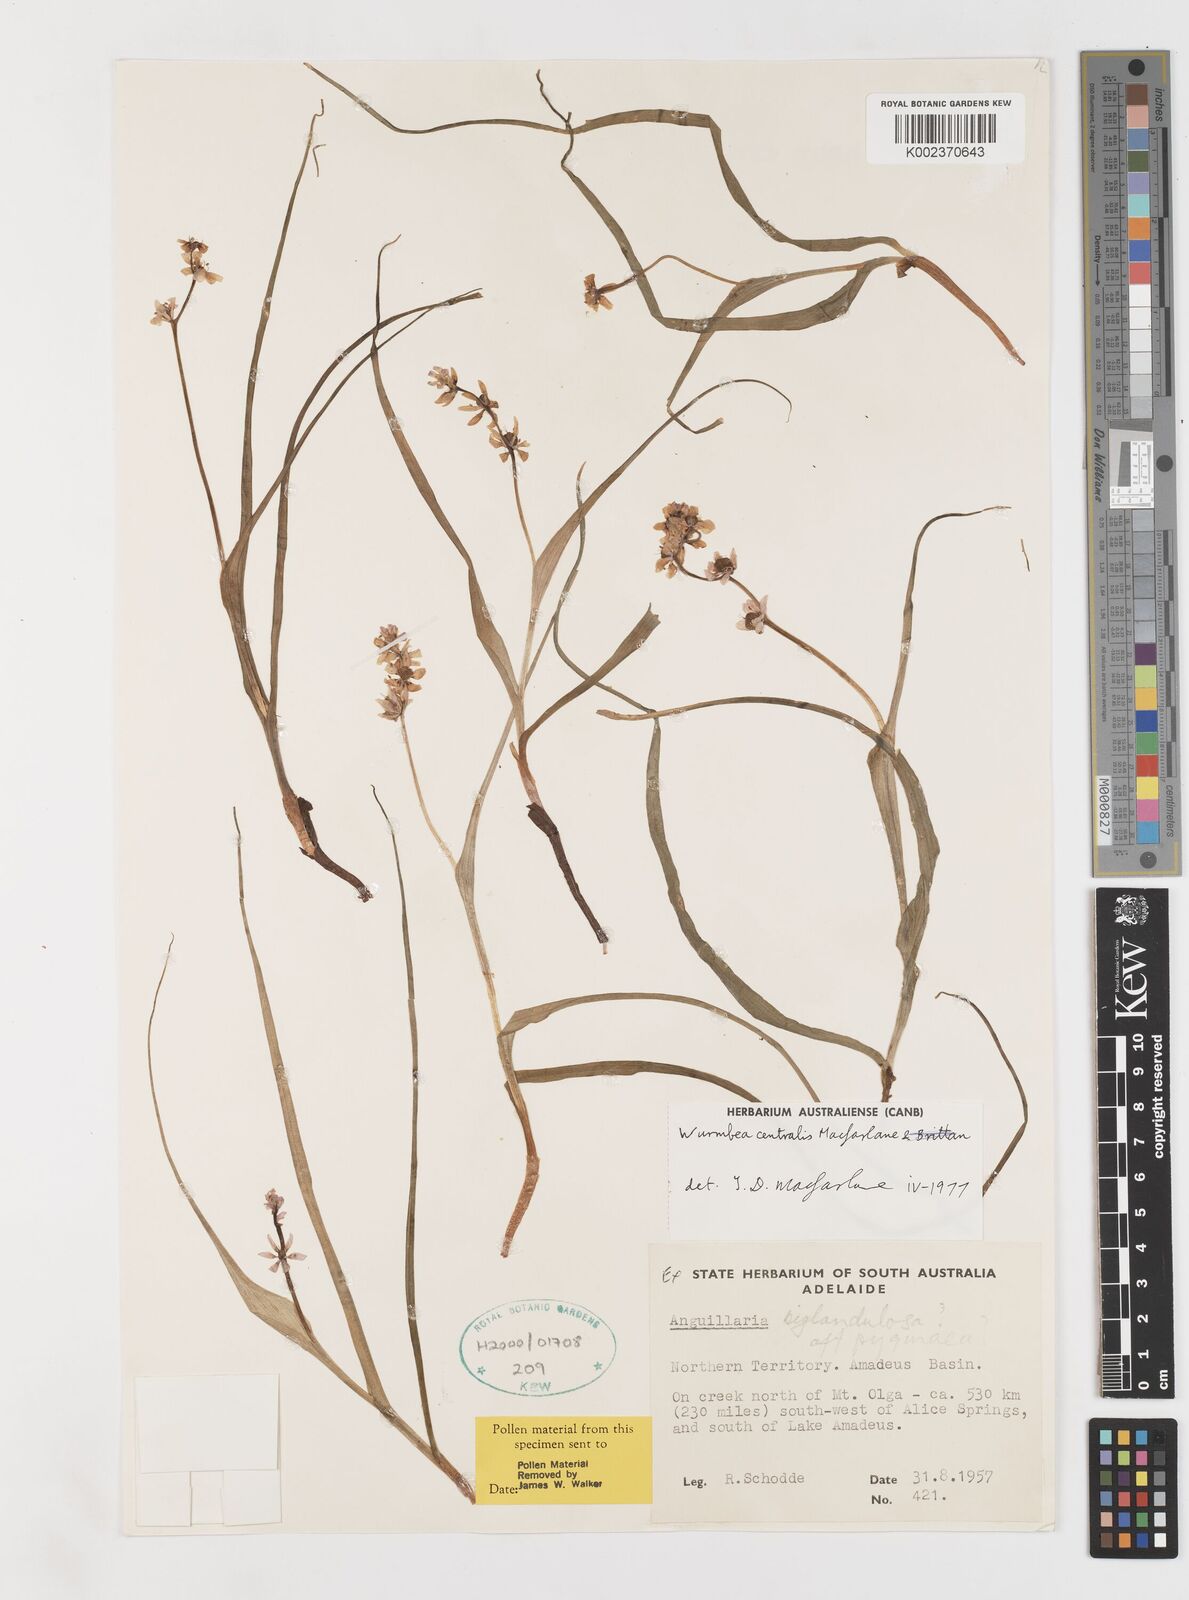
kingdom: Plantae
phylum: Tracheophyta
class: Liliopsida
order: Liliales
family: Colchicaceae
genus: Wurmbea
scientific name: Wurmbea centralis
